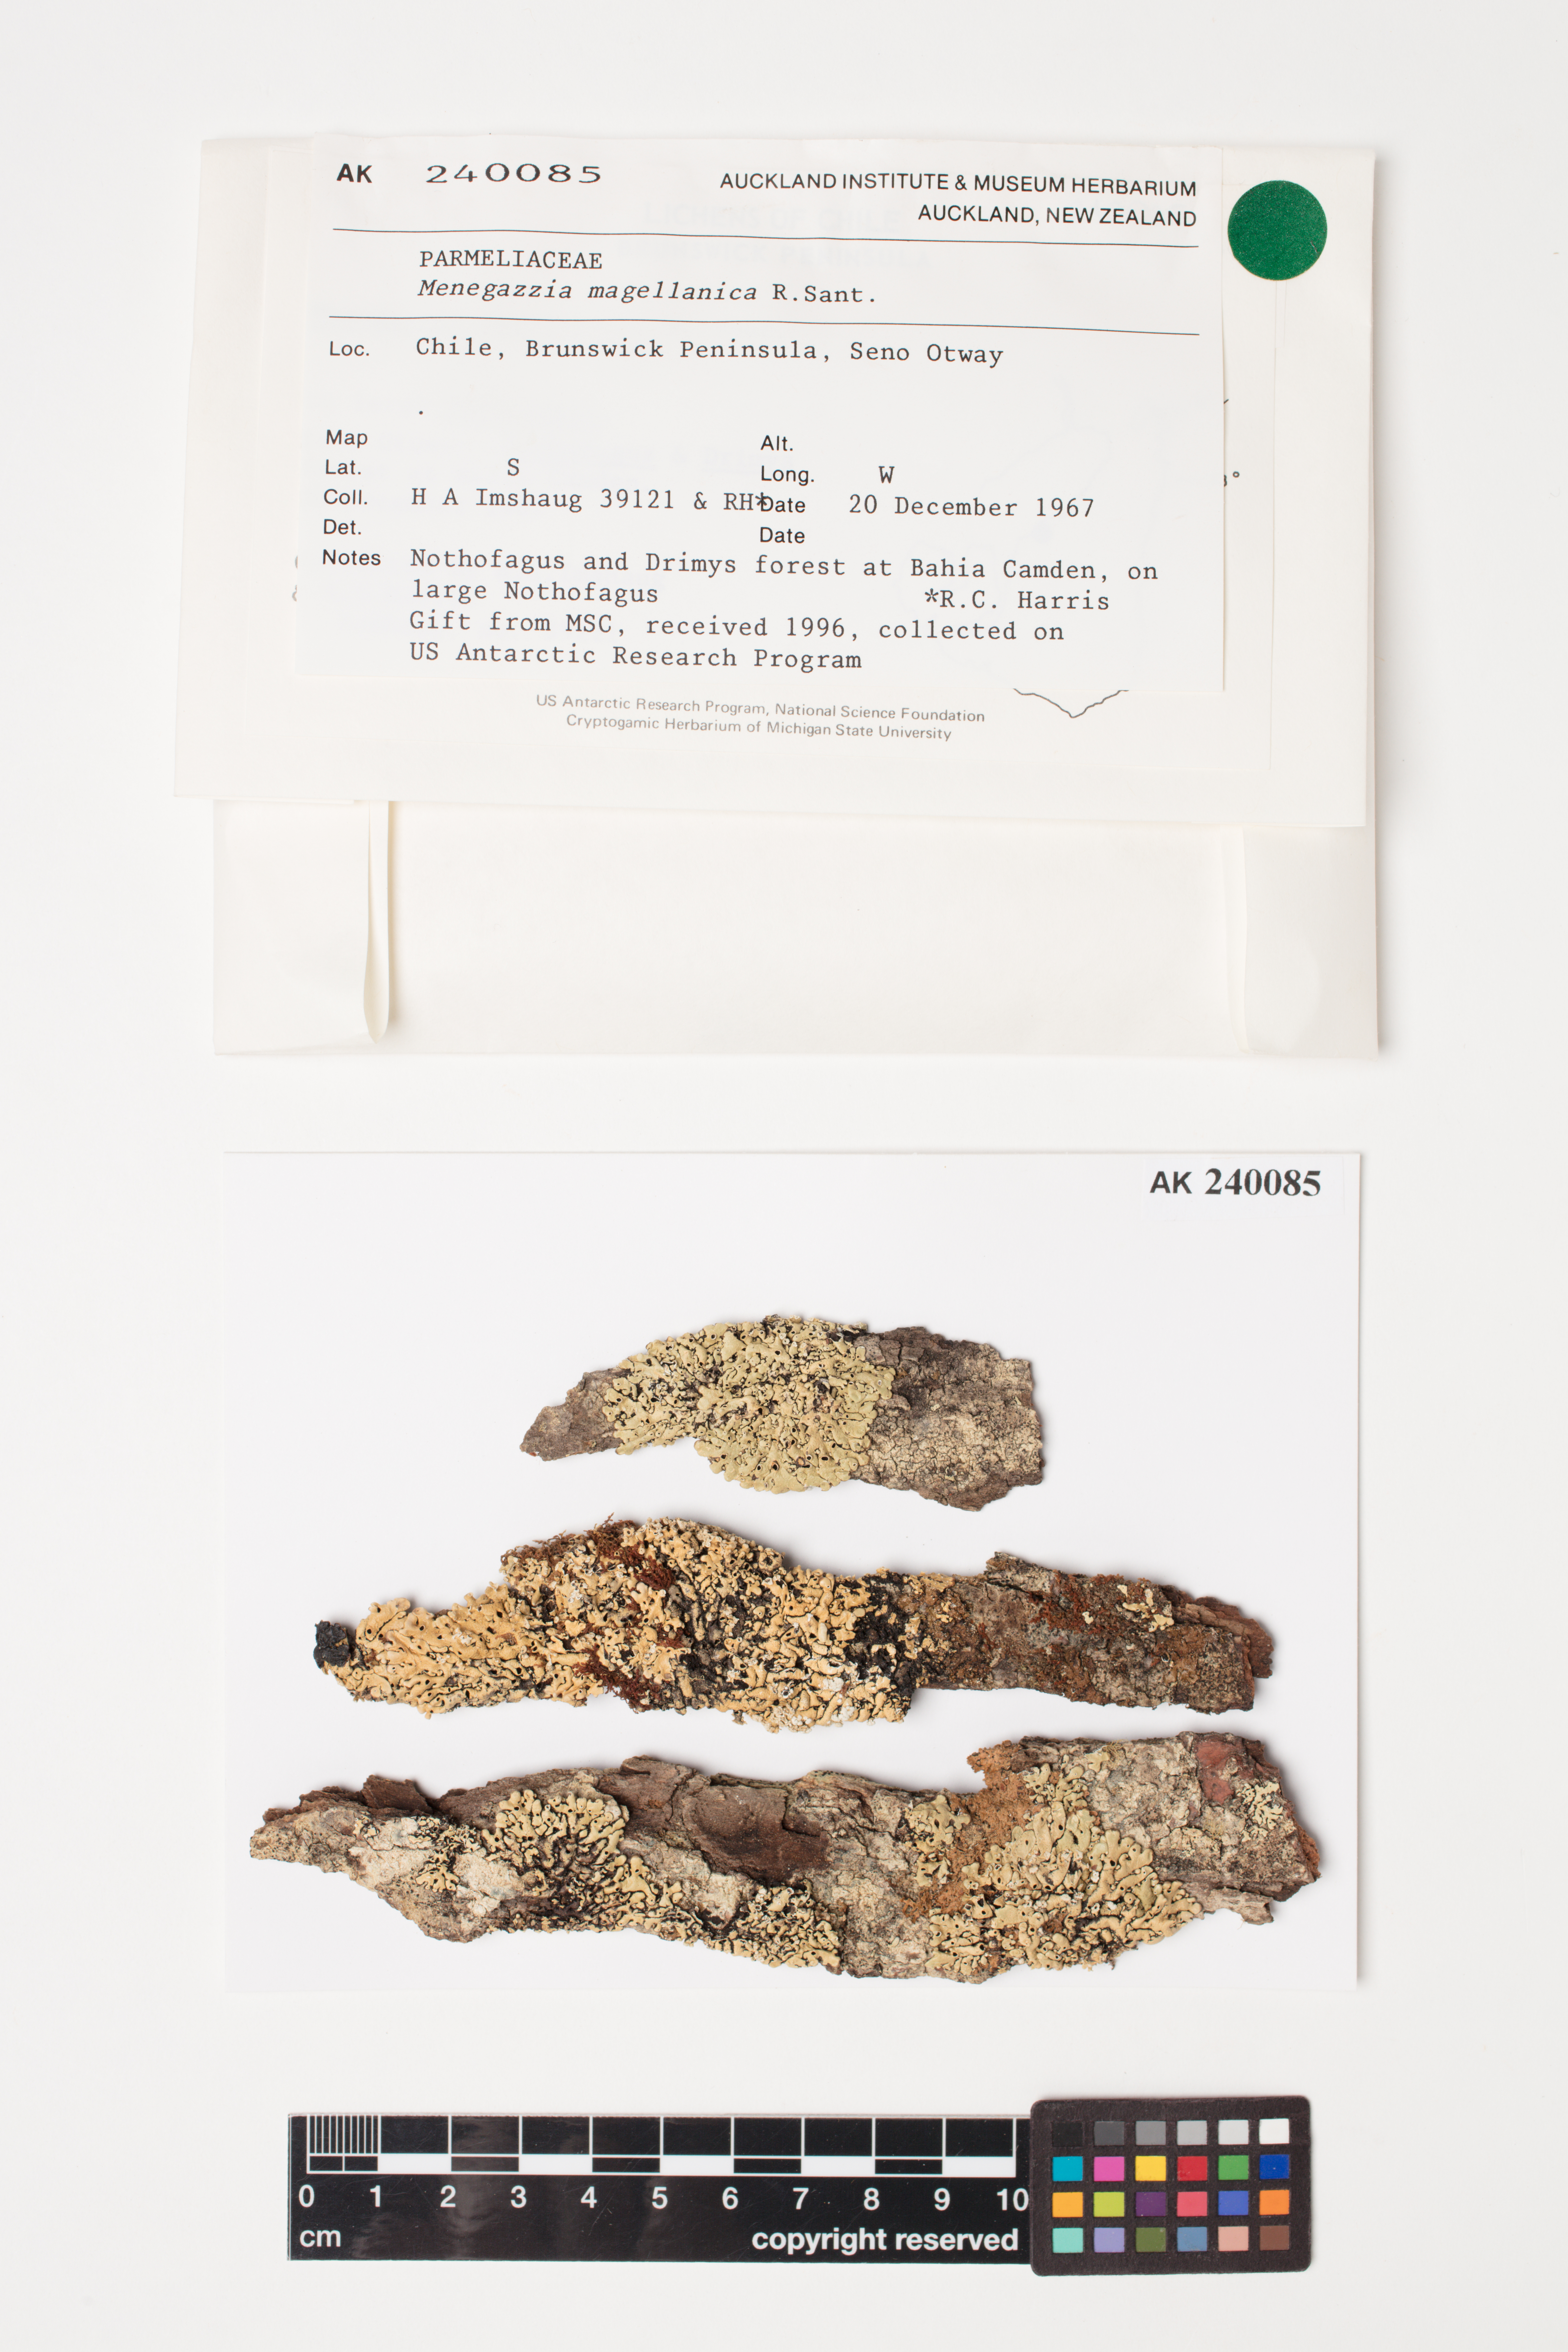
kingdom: Fungi
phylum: Ascomycota
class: Lecanoromycetes
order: Lecanorales
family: Parmeliaceae
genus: Menegazzia
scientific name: Menegazzia subpertusa
